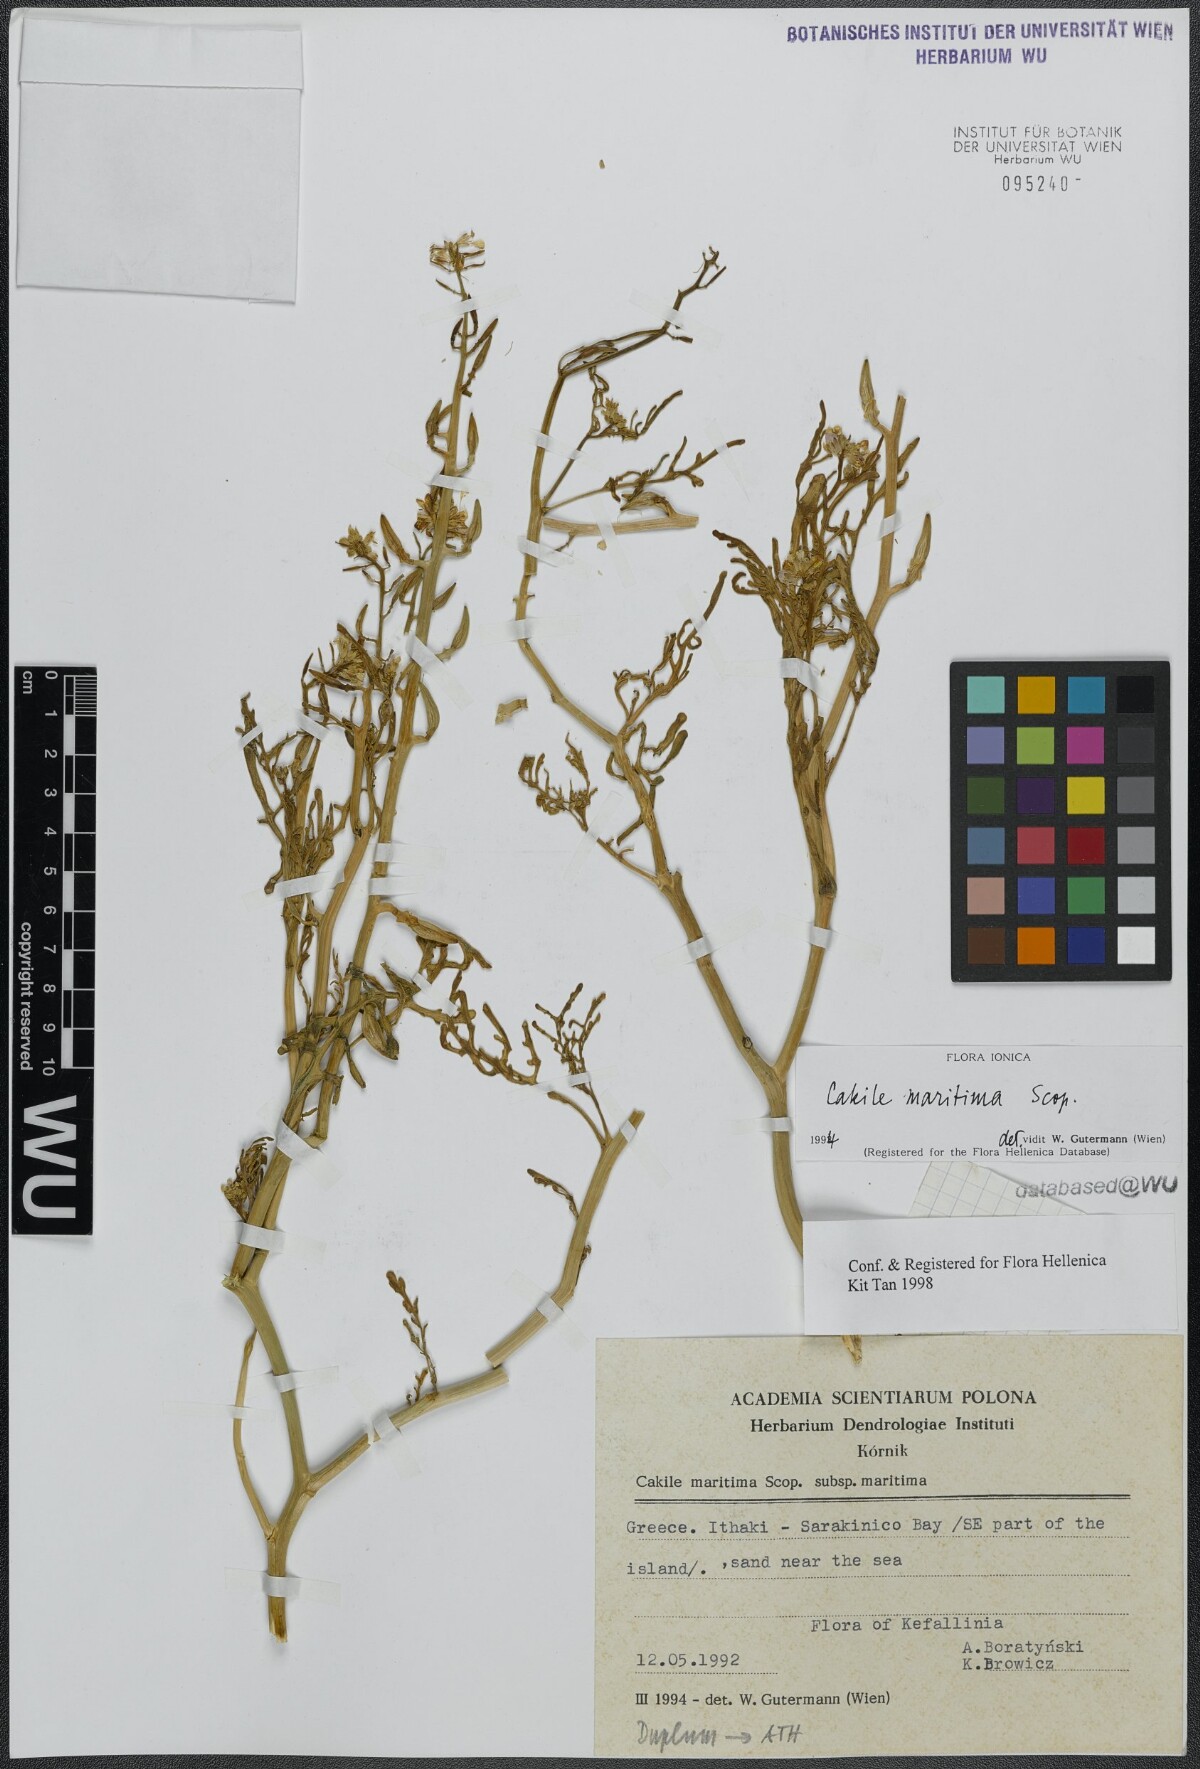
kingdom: Plantae
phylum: Tracheophyta
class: Magnoliopsida
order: Brassicales
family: Brassicaceae
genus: Cakile
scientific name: Cakile maritima
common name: Sea rocket
